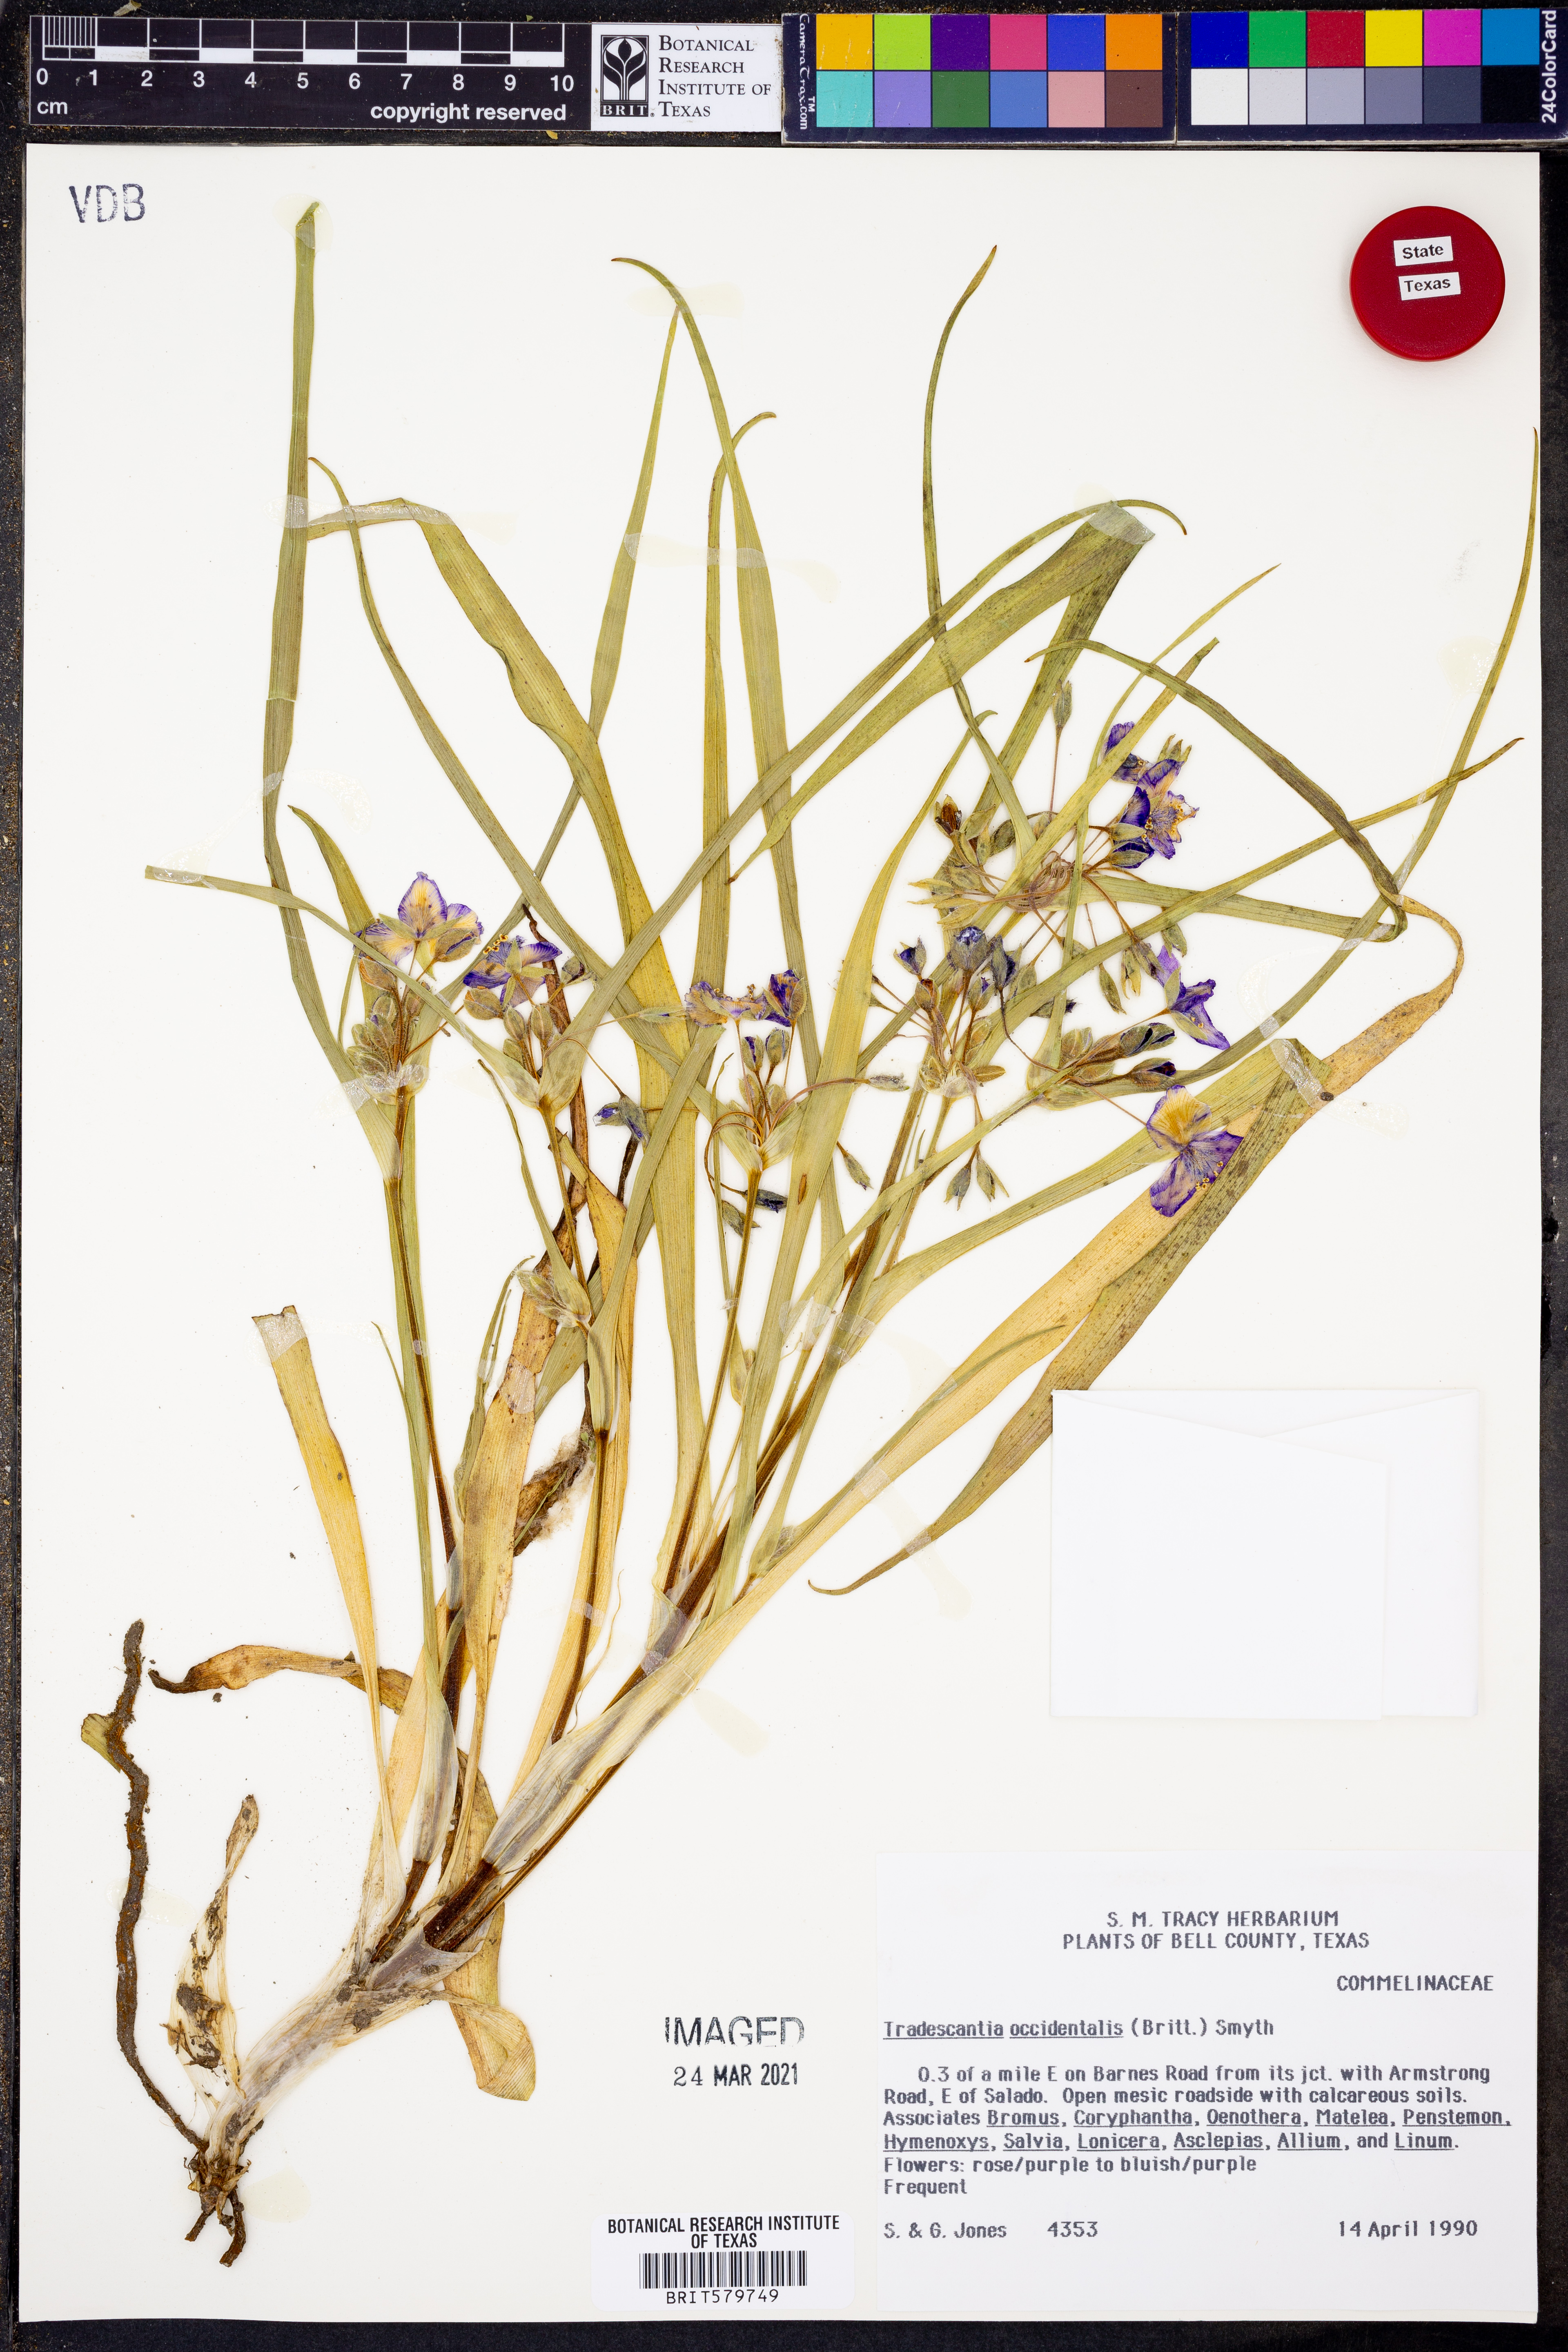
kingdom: Plantae
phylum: Tracheophyta
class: Liliopsida
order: Commelinales
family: Commelinaceae
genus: Tradescantia
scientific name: Tradescantia occidentalis
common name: Prairie spiderwort
